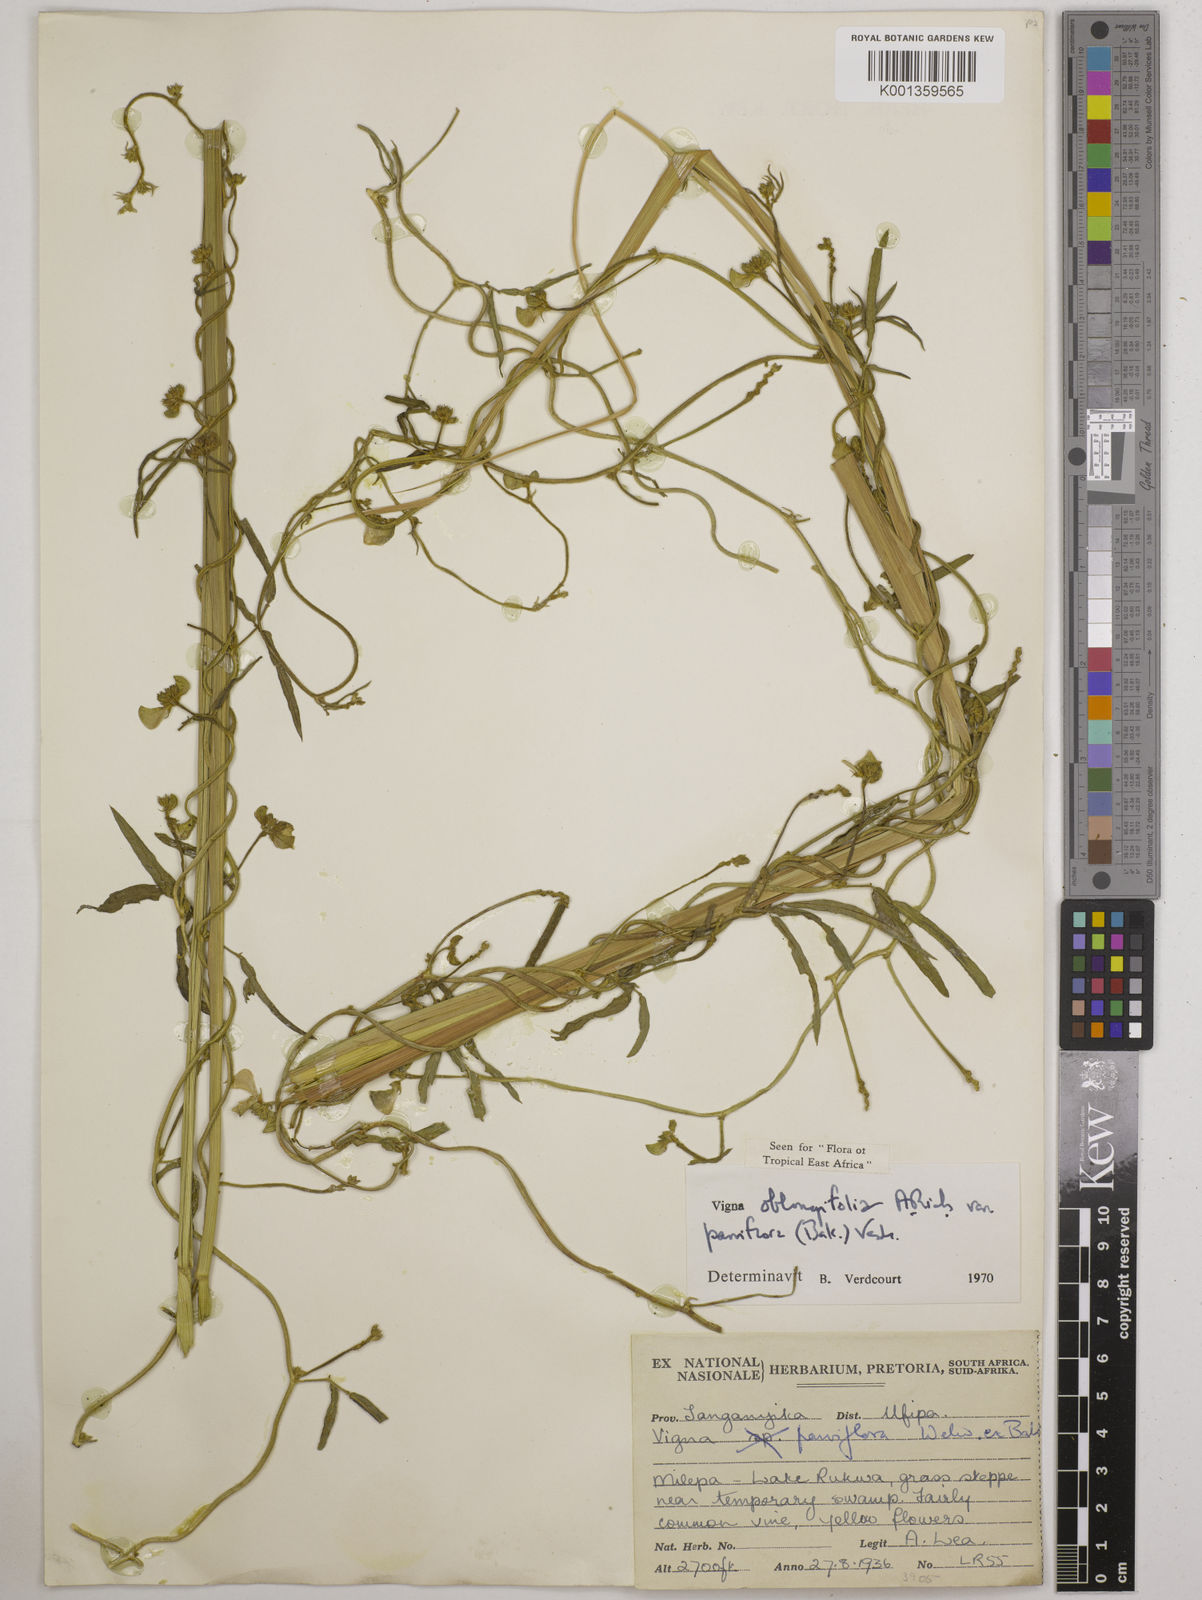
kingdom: Plantae
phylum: Tracheophyta
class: Magnoliopsida
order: Fabales
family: Fabaceae
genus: Vigna
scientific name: Vigna
